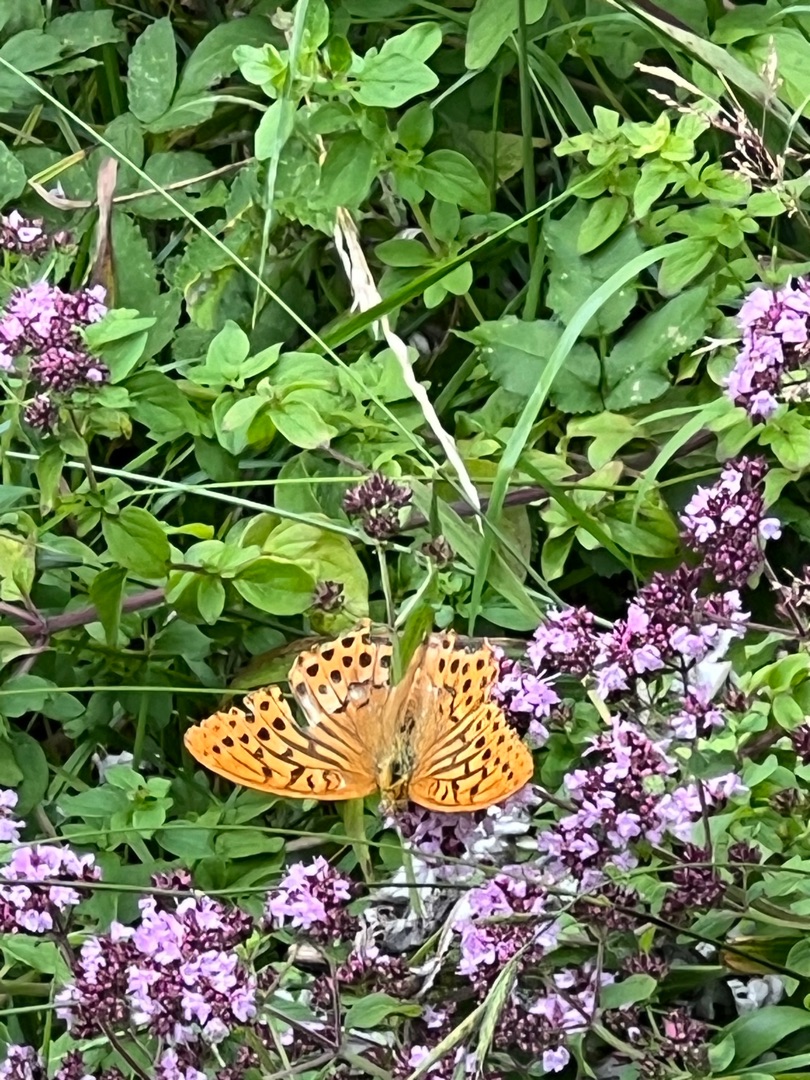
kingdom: Animalia
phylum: Arthropoda
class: Insecta
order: Lepidoptera
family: Nymphalidae
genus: Argynnis
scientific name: Argynnis paphia
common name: Kejserkåbe
